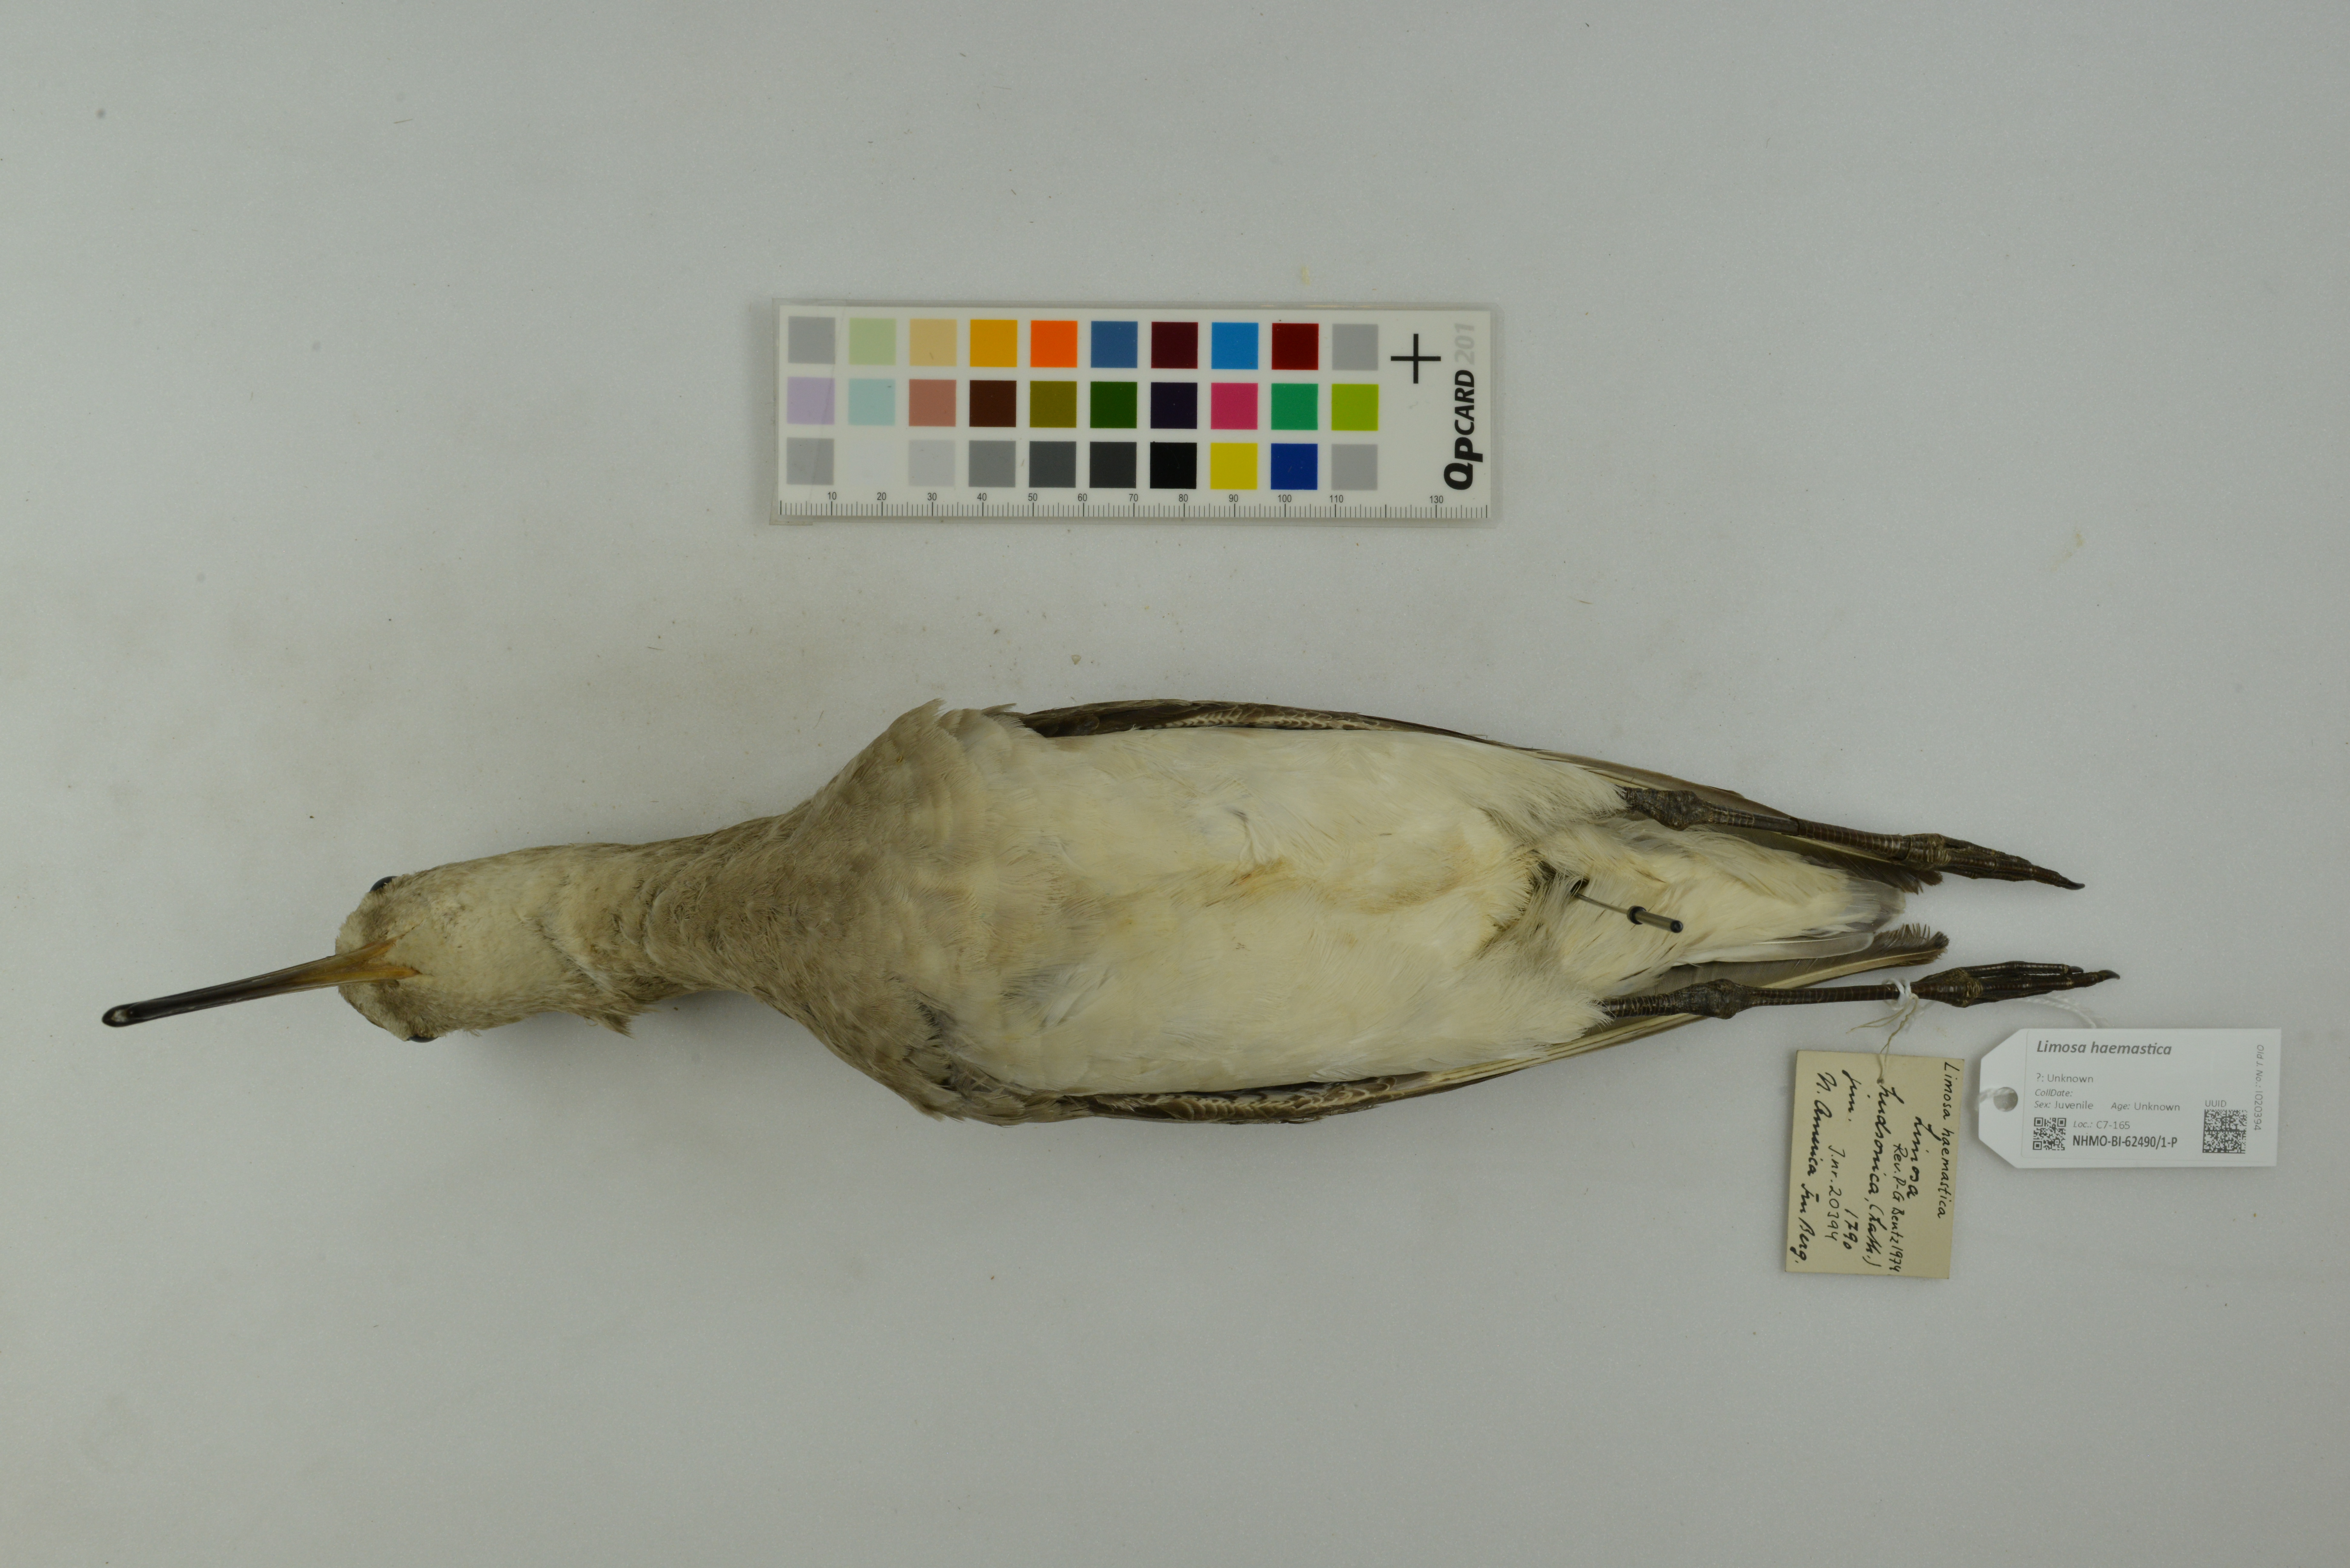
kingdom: Animalia
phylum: Chordata
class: Aves
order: Charadriiformes
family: Scolopacidae
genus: Limosa
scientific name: Limosa haemastica
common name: Hudsonian godwit
